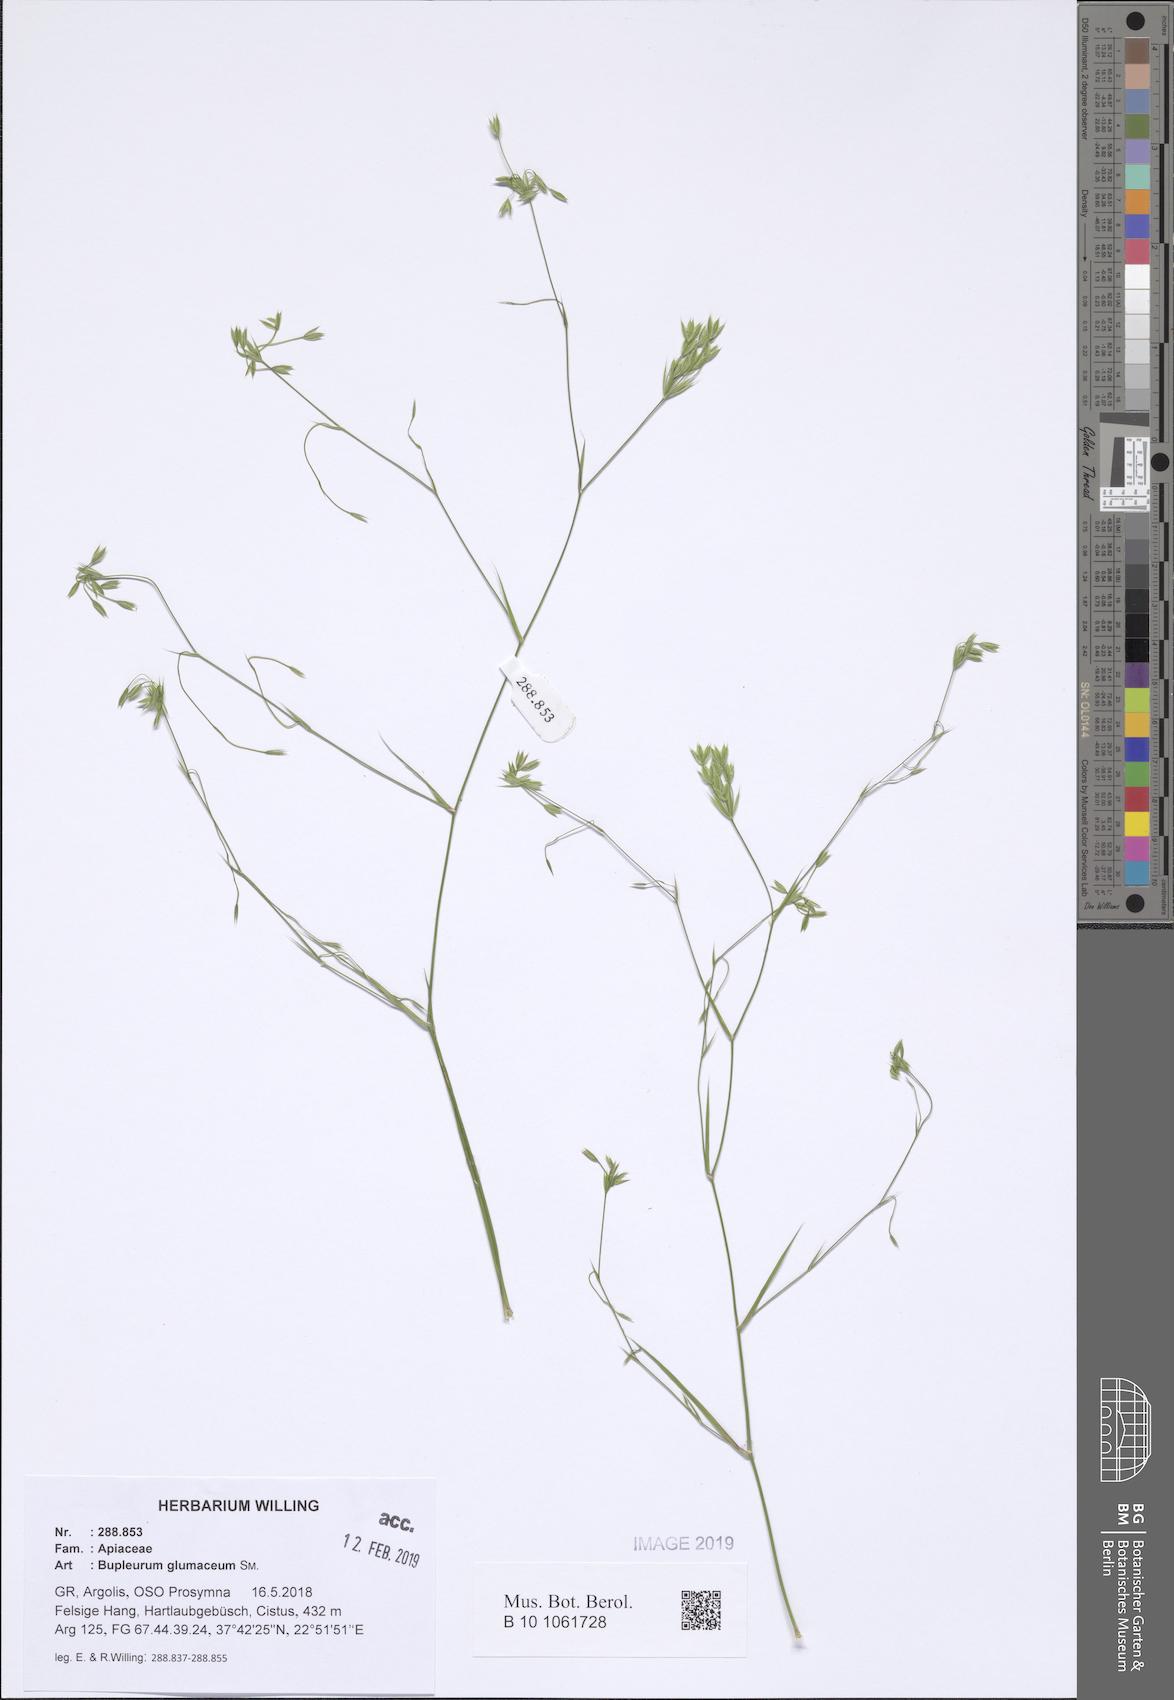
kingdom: Plantae
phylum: Tracheophyta
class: Magnoliopsida
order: Apiales
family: Apiaceae
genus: Bupleurum
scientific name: Bupleurum glumaceum
